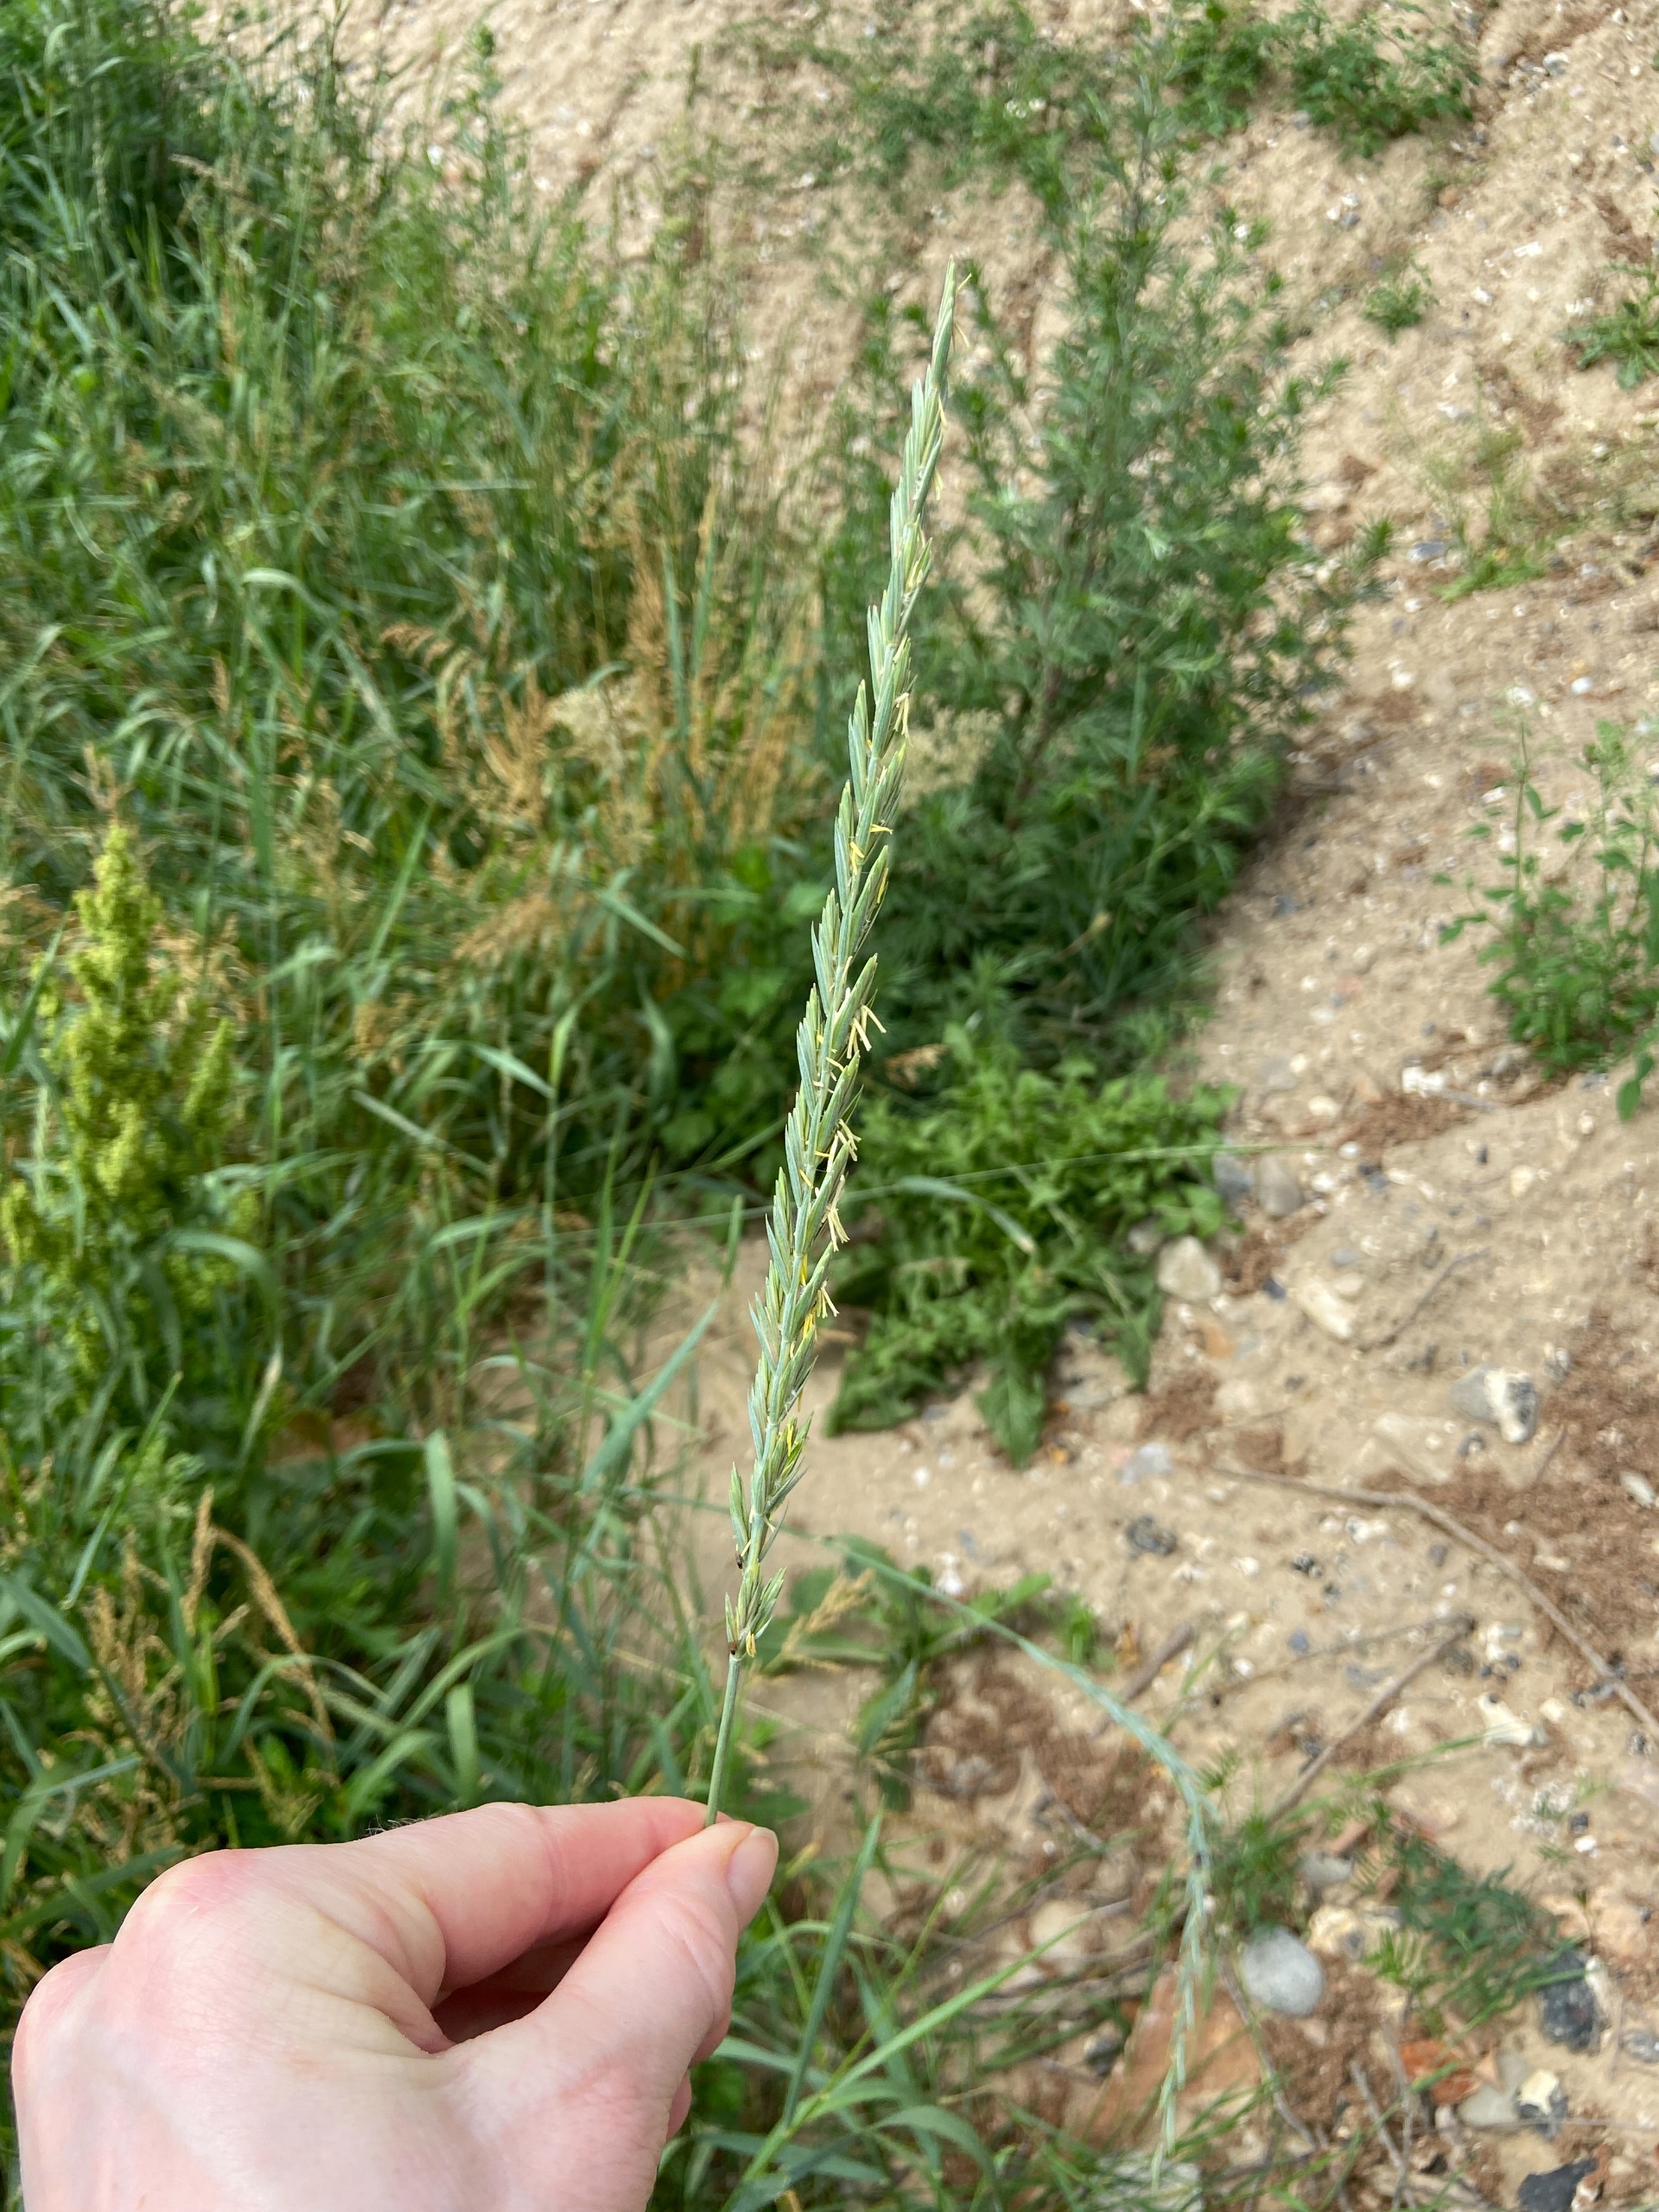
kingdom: Plantae
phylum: Tracheophyta
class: Liliopsida
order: Poales
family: Poaceae
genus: Elymus
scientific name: Elymus repens
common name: Almindelig kvik
